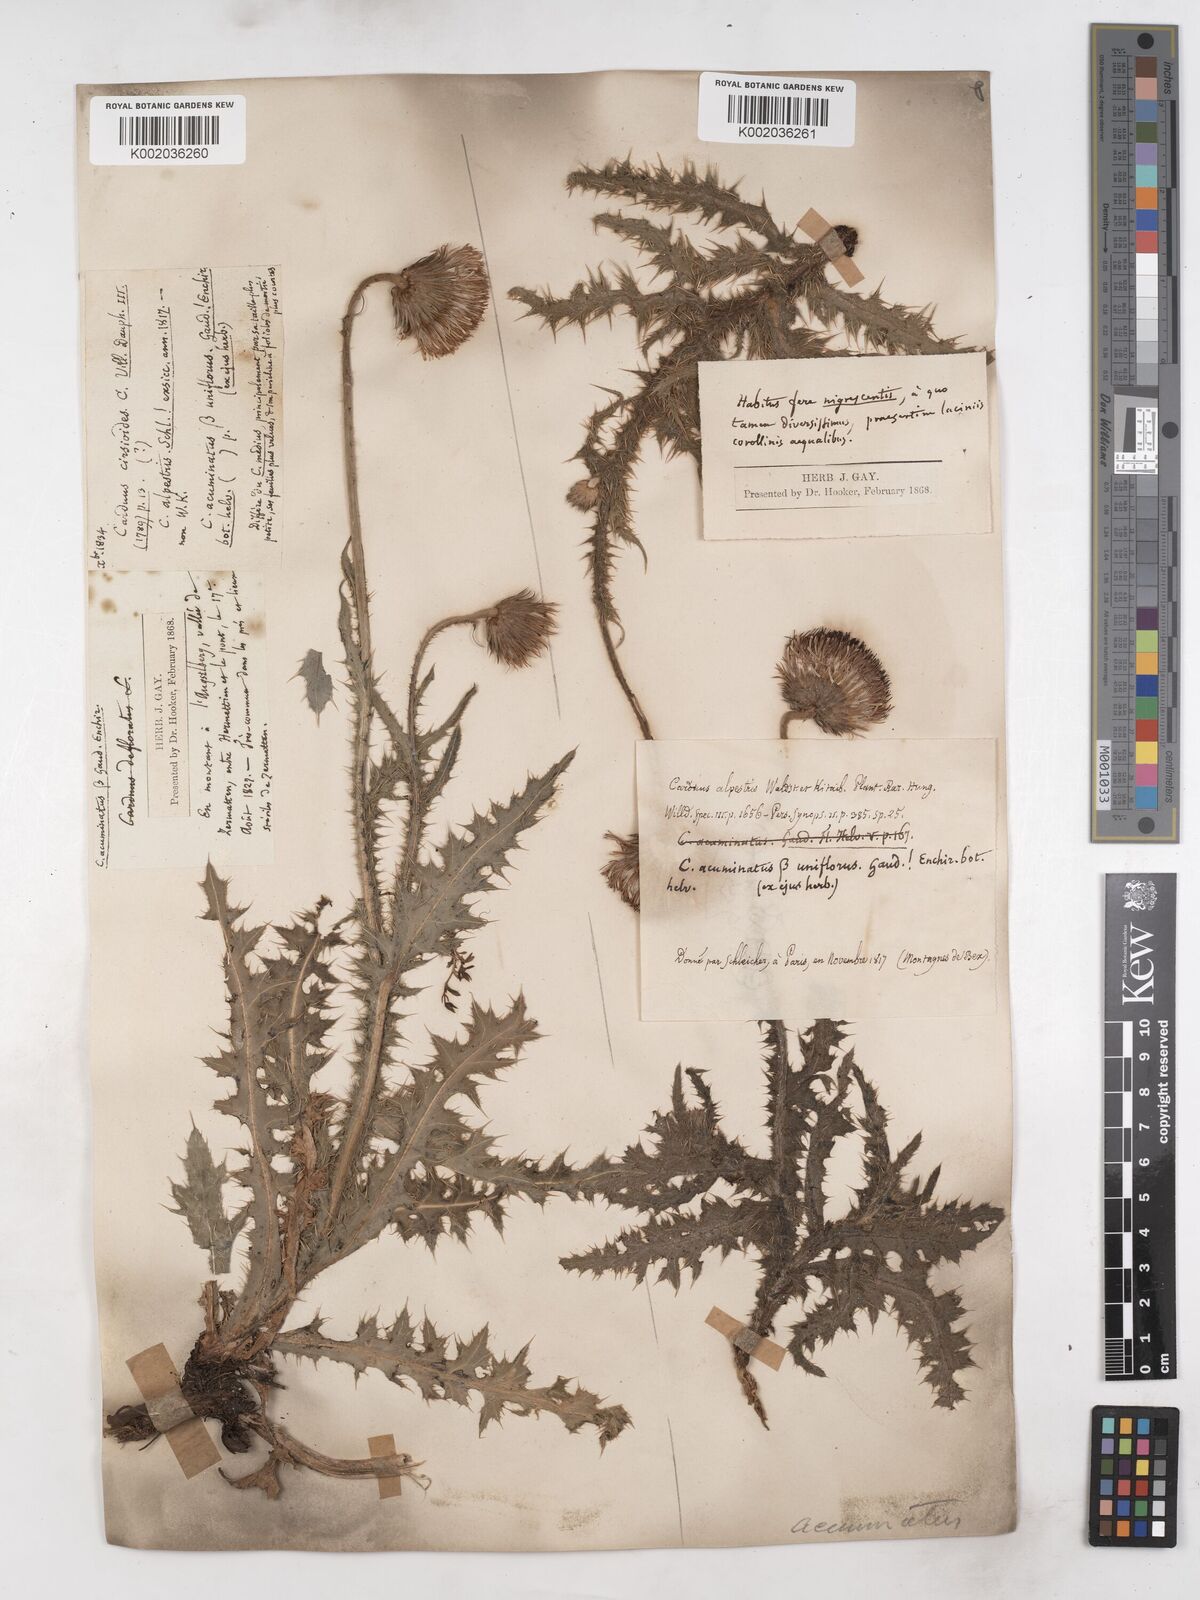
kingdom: Plantae
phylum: Tracheophyta
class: Magnoliopsida
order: Asterales
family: Asteraceae
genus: Carduus
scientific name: Carduus defloratus
